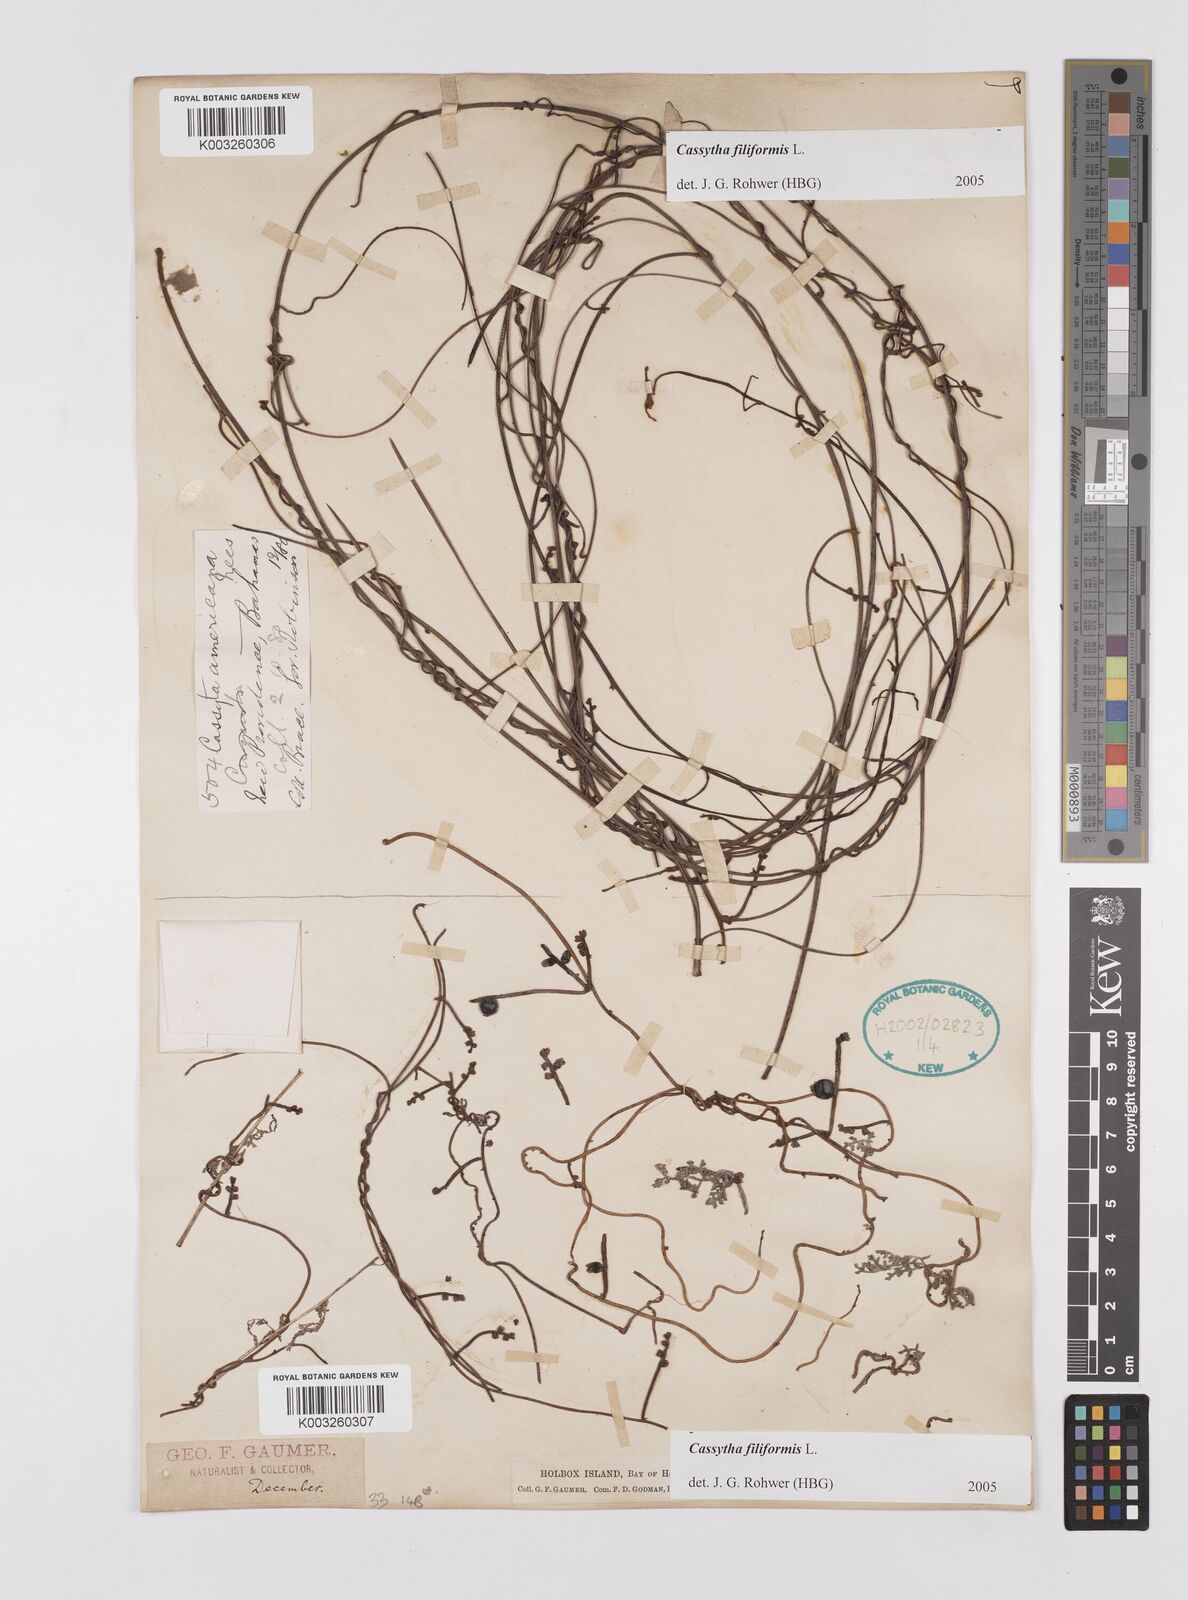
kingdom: Plantae
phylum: Tracheophyta
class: Magnoliopsida
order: Laurales
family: Lauraceae
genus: Cassytha
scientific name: Cassytha filiformis
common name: Dodder-laurel
